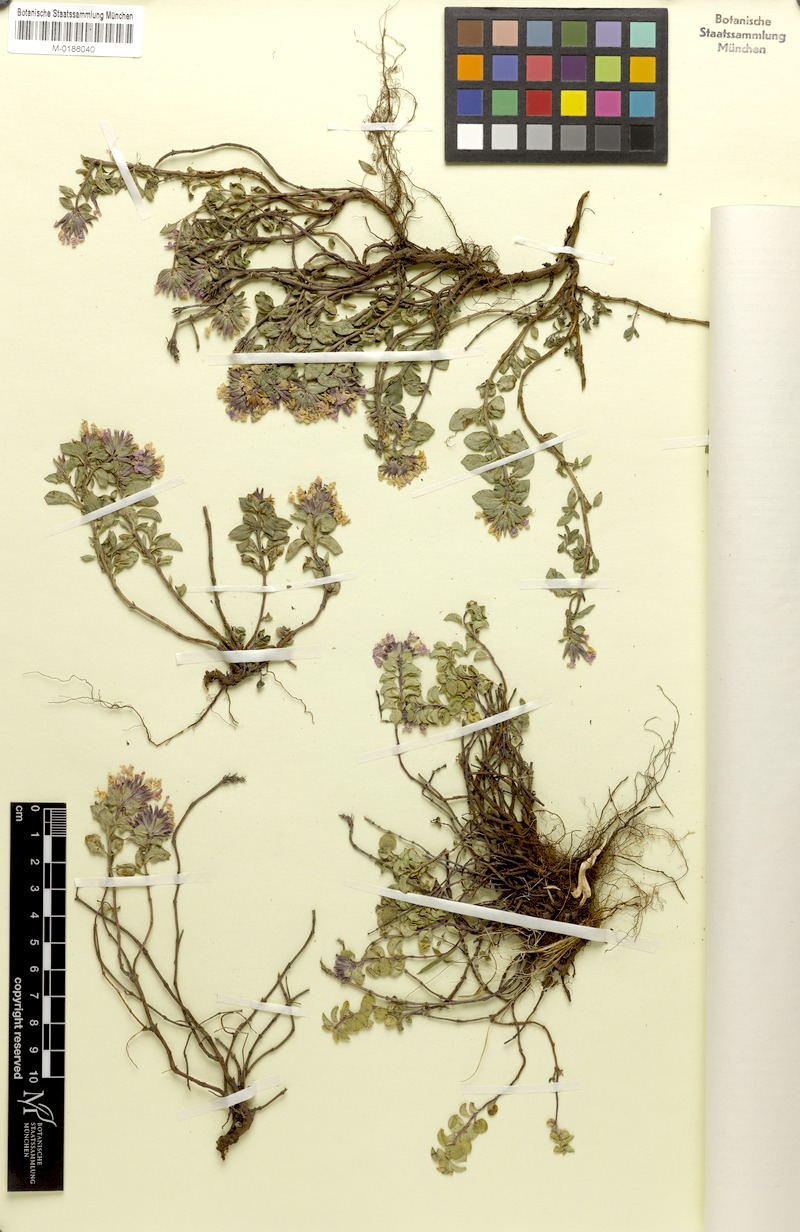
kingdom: Plantae
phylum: Tracheophyta
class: Magnoliopsida
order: Lamiales
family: Lamiaceae
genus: Ziziphora
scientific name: Ziziphora clinopodioides
